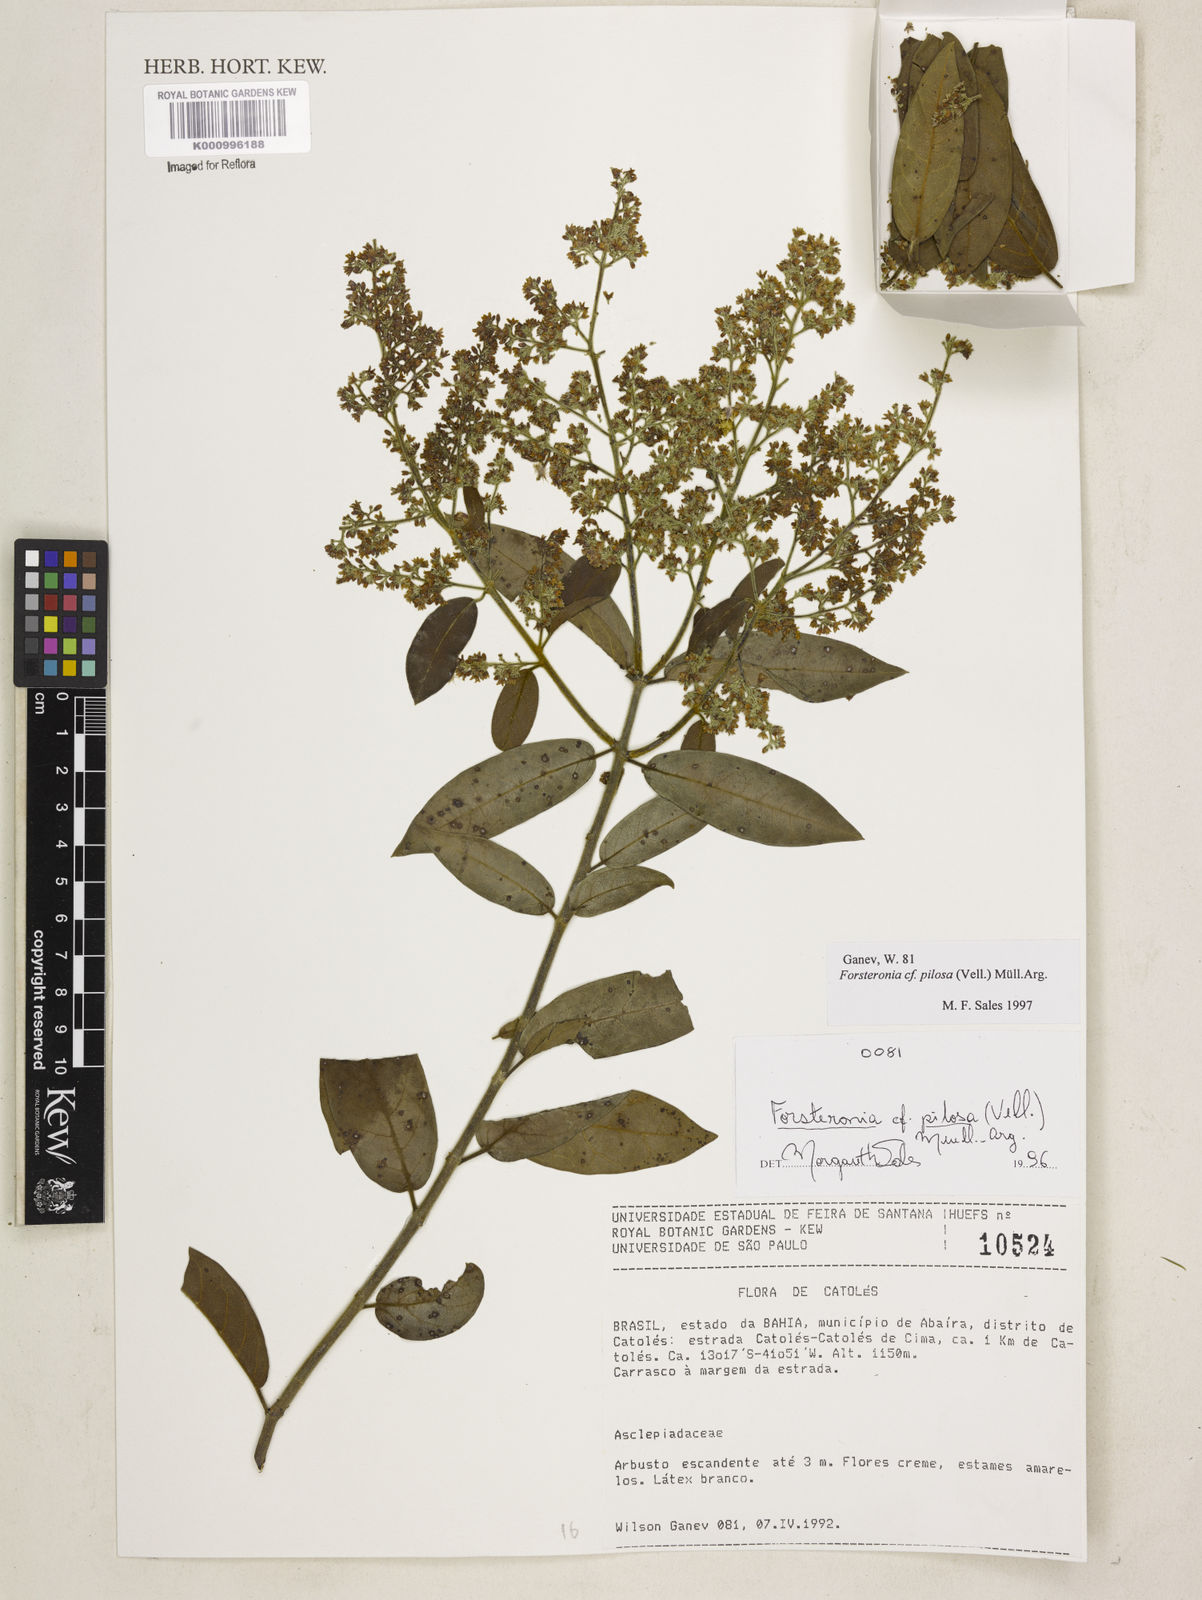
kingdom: Plantae
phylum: Tracheophyta
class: Magnoliopsida
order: Gentianales
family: Apocynaceae
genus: Forsteronia
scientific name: Forsteronia
